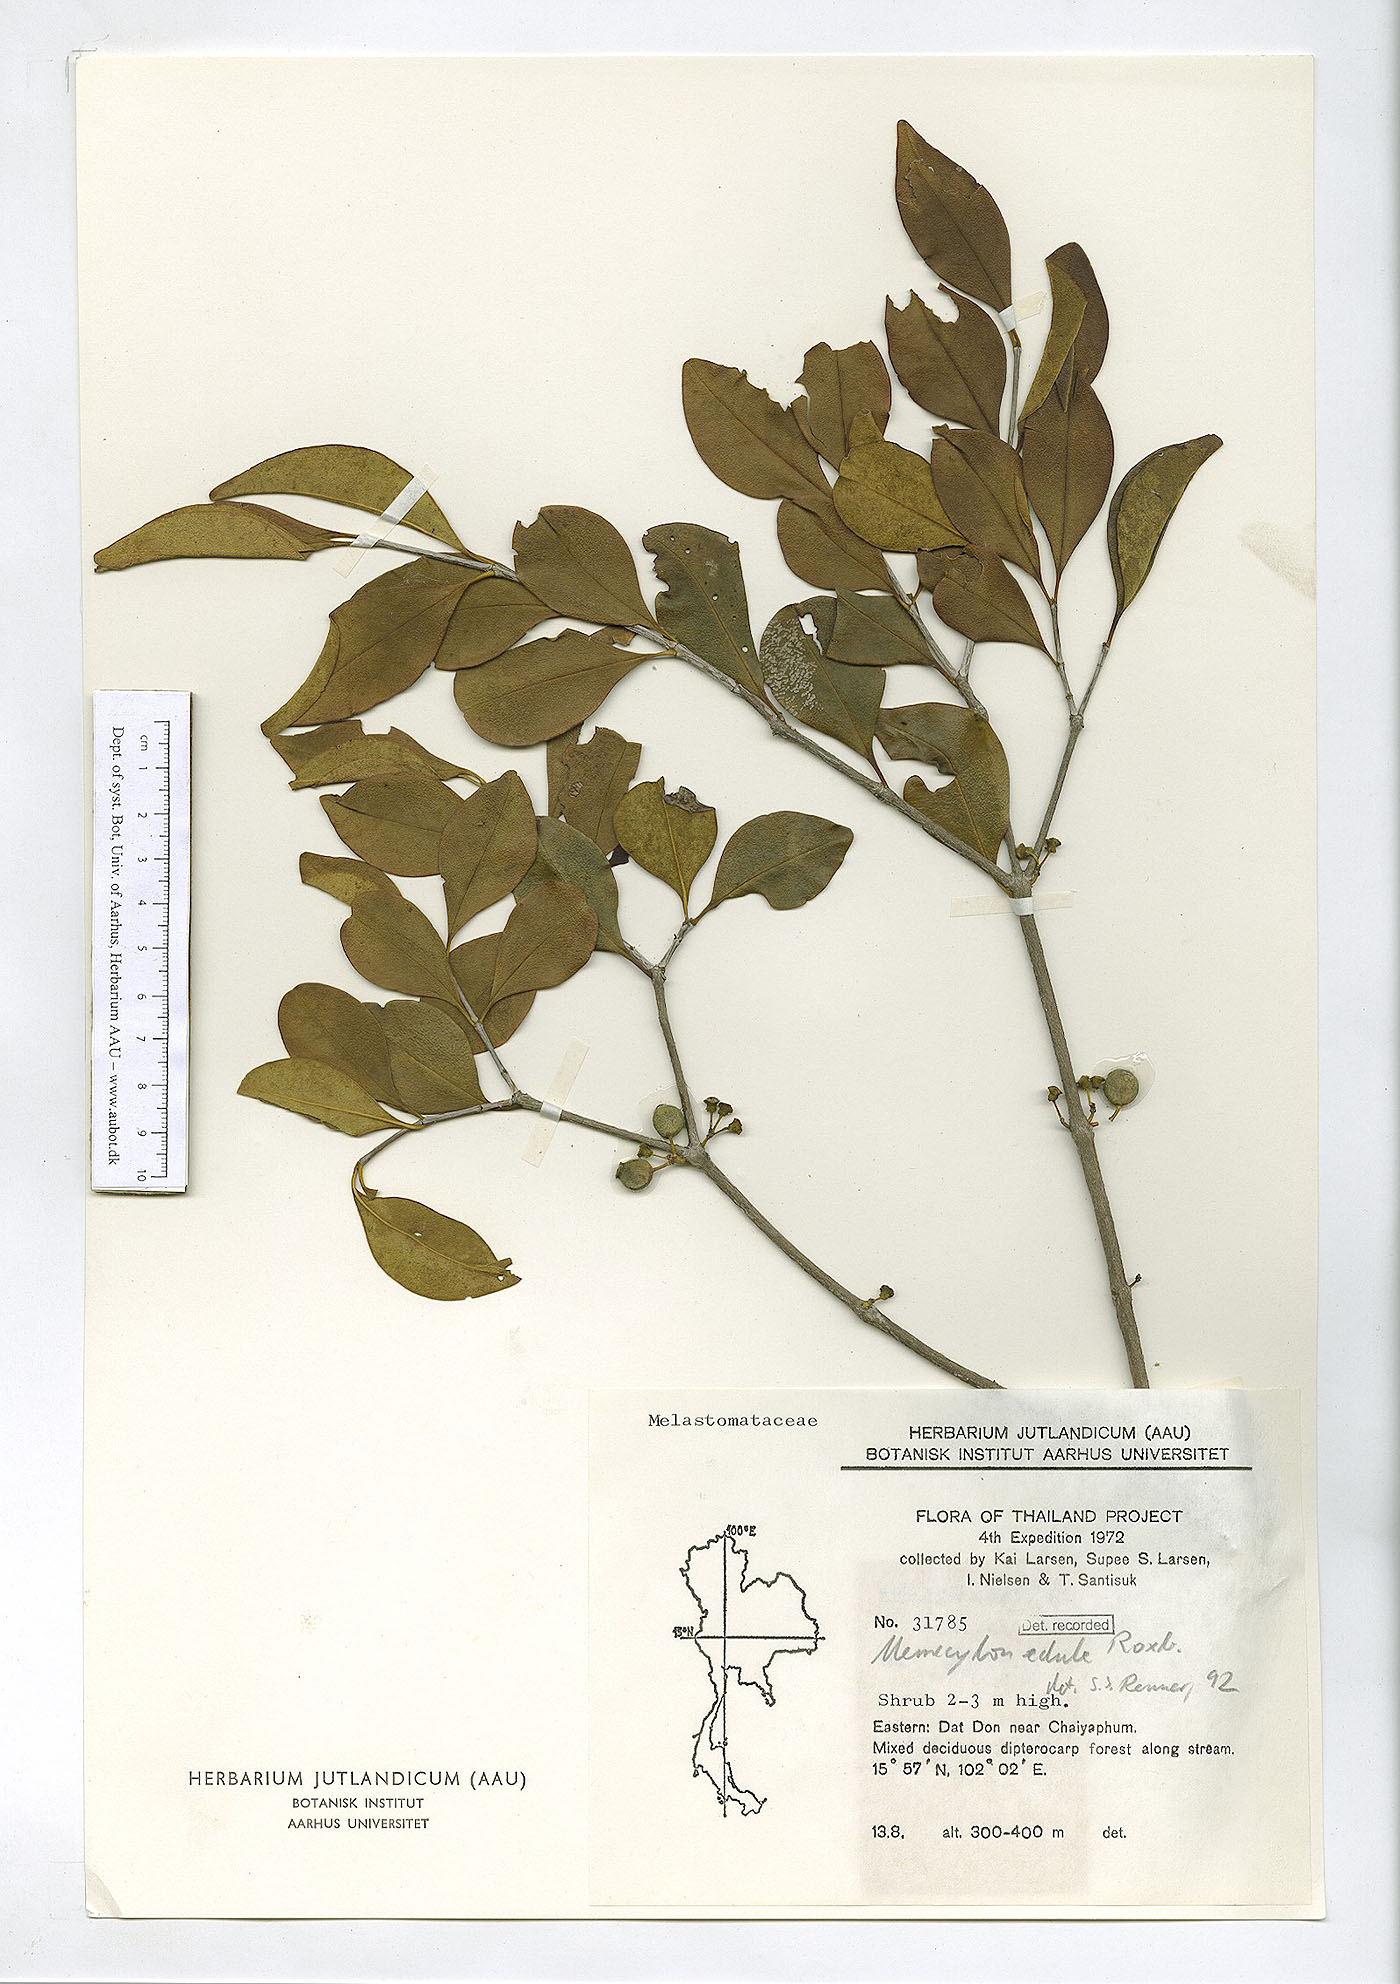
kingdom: Plantae
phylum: Tracheophyta
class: Magnoliopsida
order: Myrtales
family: Melastomataceae
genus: Memecylon
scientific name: Memecylon scutellatum
